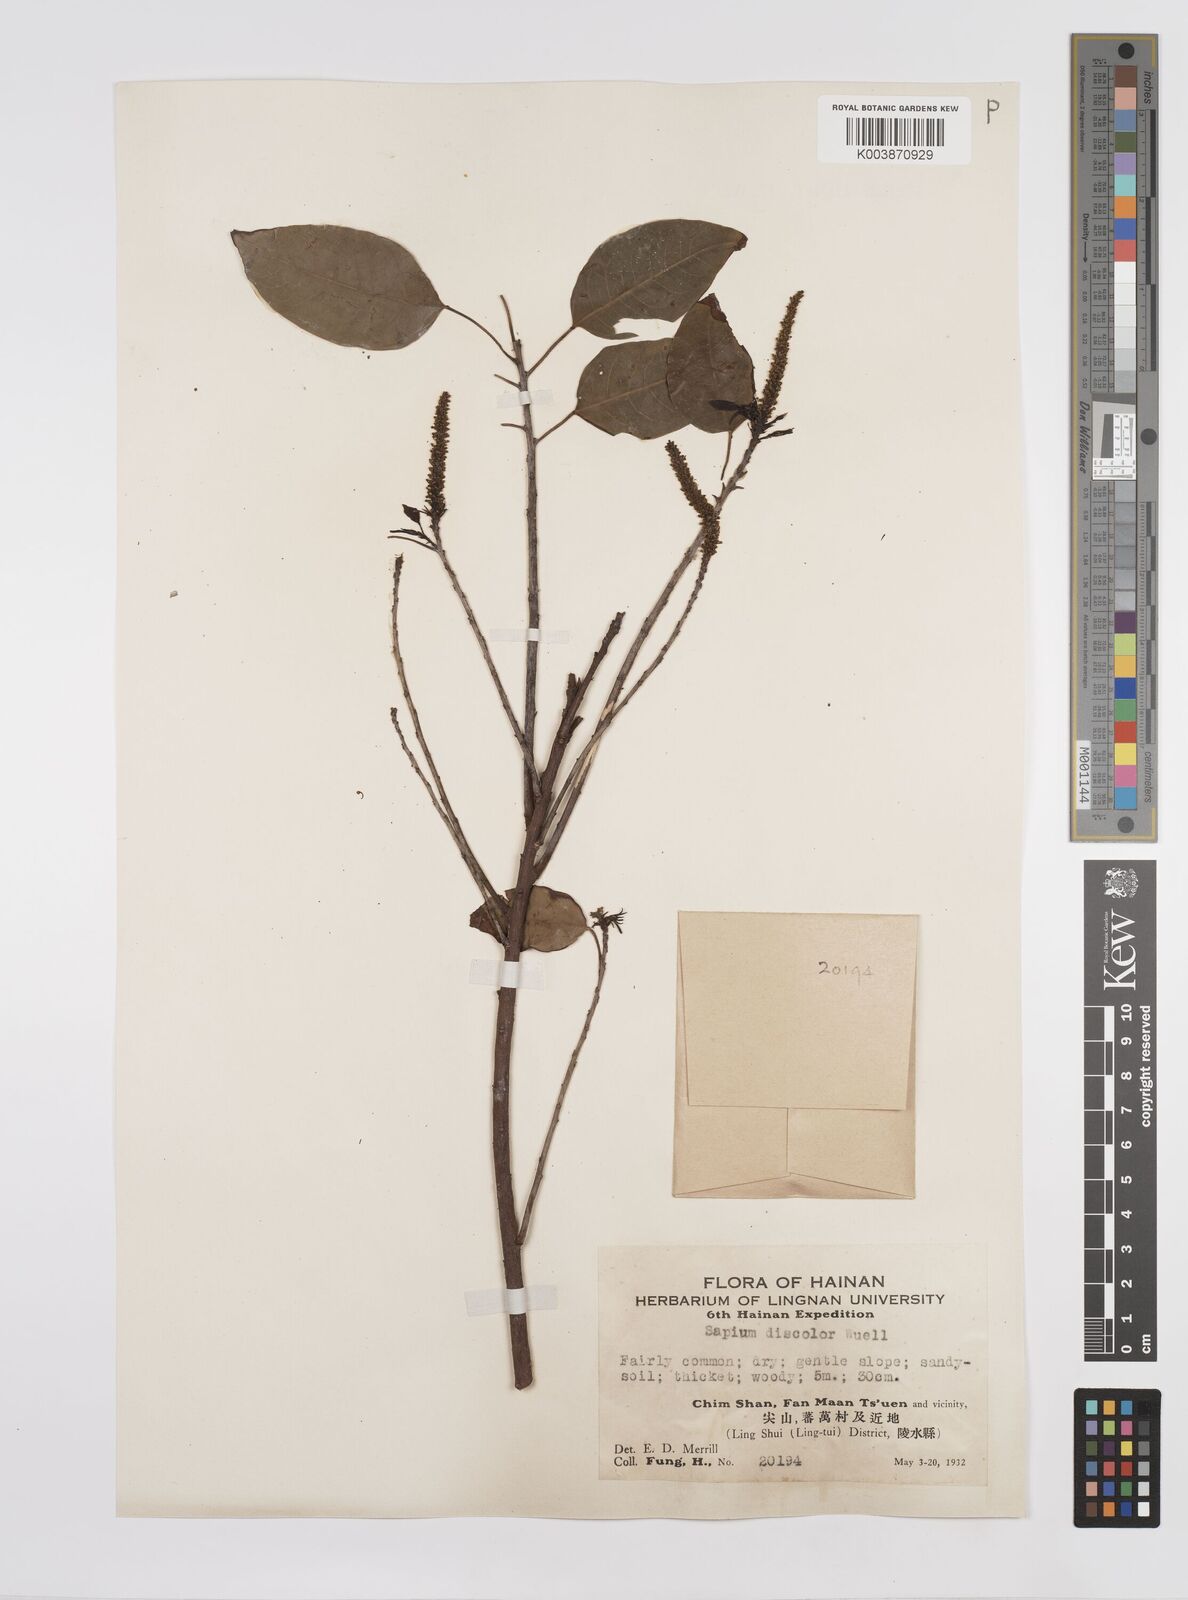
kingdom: Plantae
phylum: Tracheophyta
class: Magnoliopsida
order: Malpighiales
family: Euphorbiaceae
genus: Triadica
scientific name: Triadica cochinchinensis
